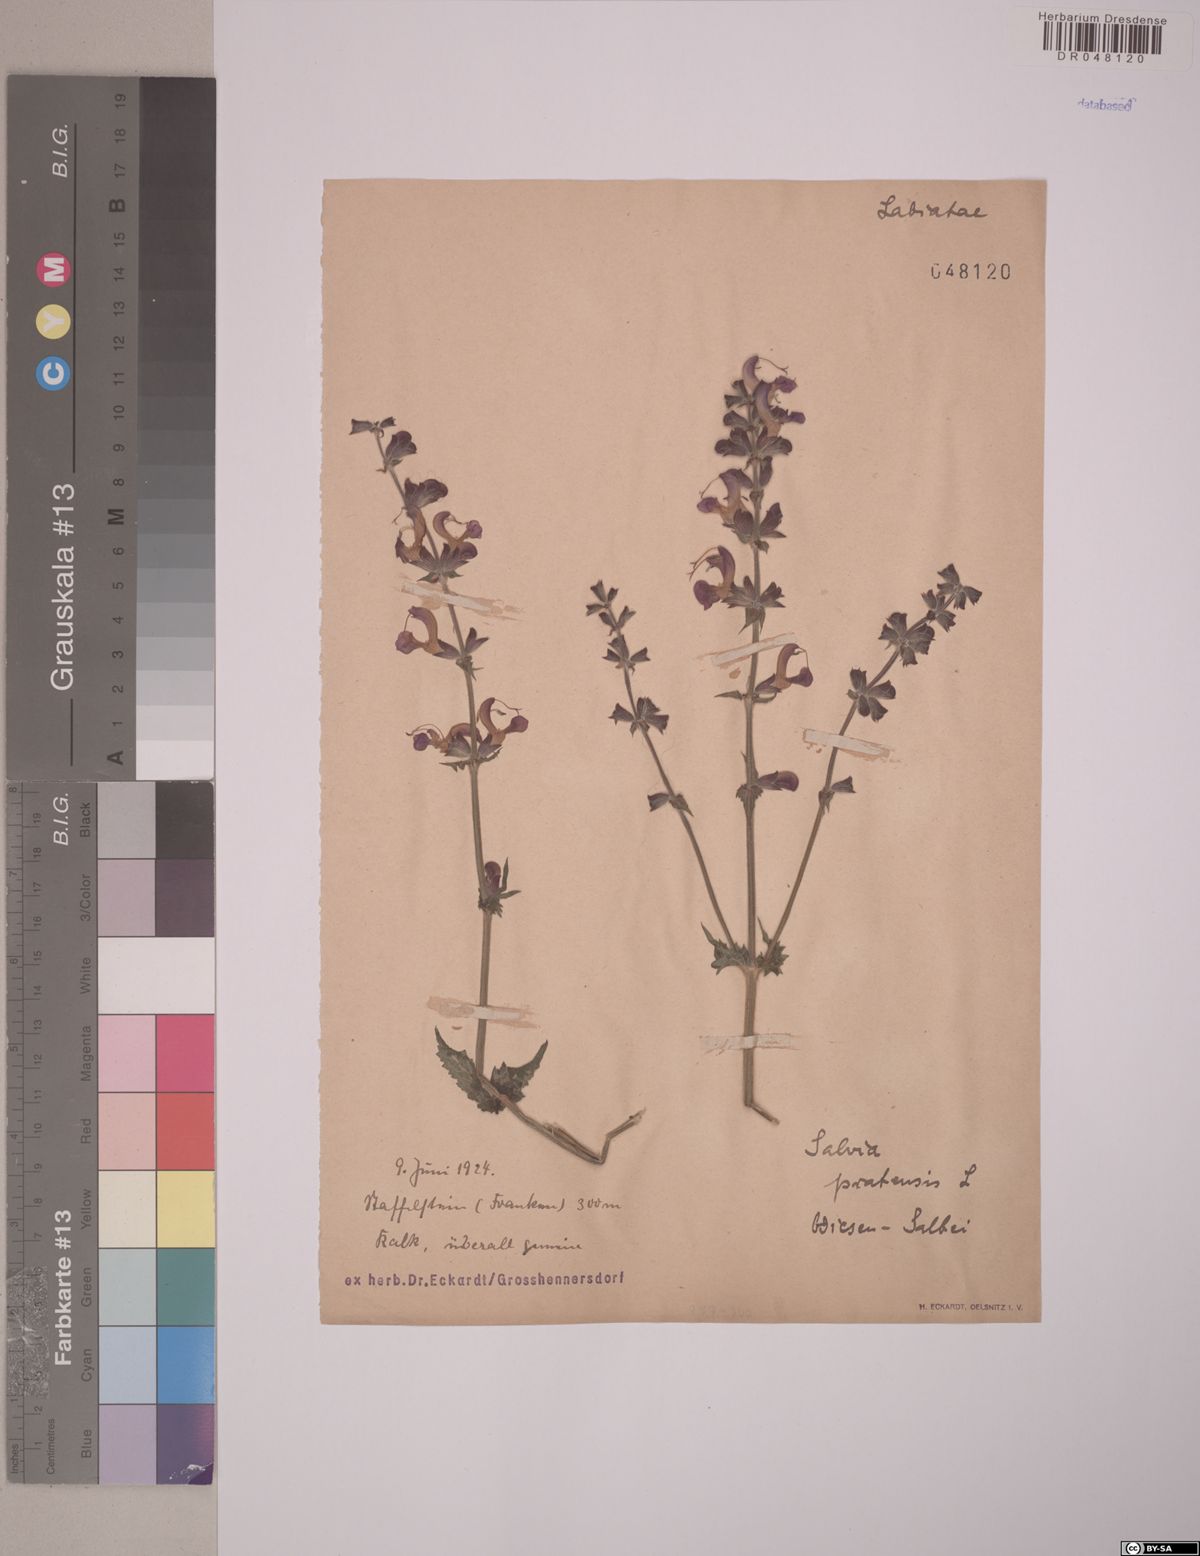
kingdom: Plantae
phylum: Tracheophyta
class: Magnoliopsida
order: Lamiales
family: Lamiaceae
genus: Salvia
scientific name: Salvia pratensis
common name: Meadow sage
